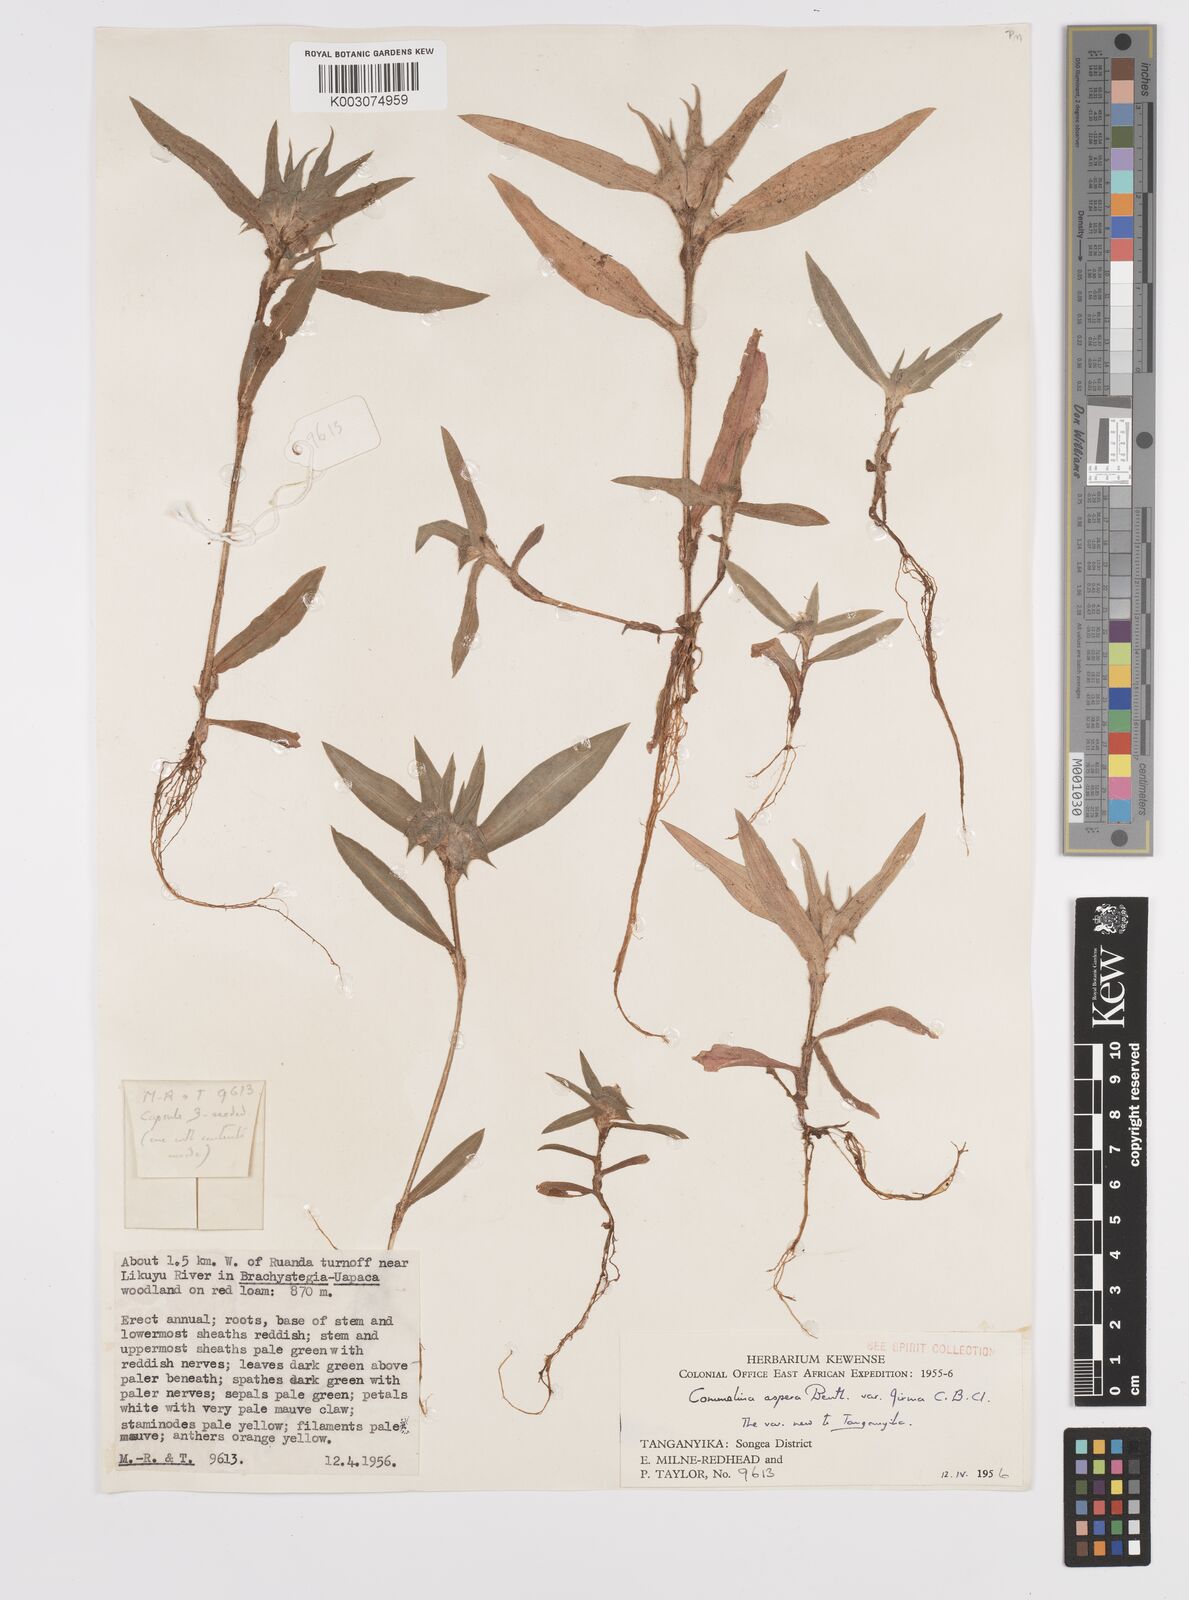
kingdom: Plantae
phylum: Tracheophyta
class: Liliopsida
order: Commelinales
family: Commelinaceae
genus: Commelina
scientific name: Commelina aspera
